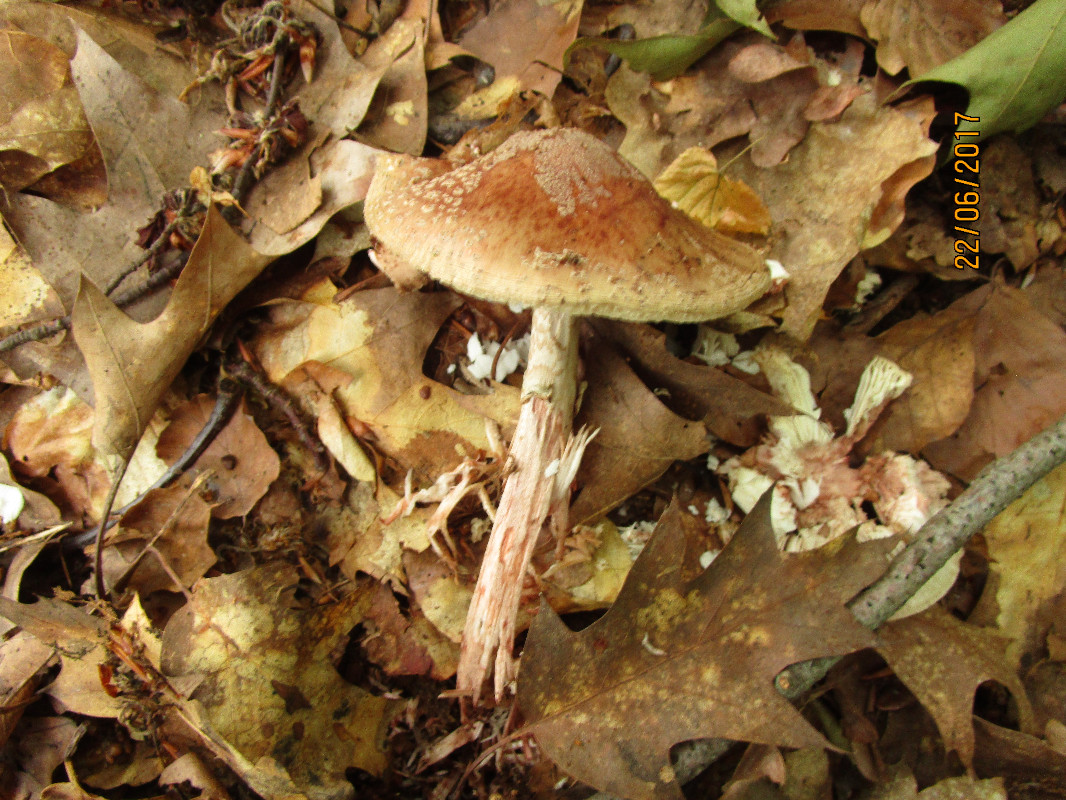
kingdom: Fungi
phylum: Basidiomycota
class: Agaricomycetes
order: Agaricales
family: Amanitaceae
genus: Amanita
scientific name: Amanita rubescens
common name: rødmende fluesvamp
